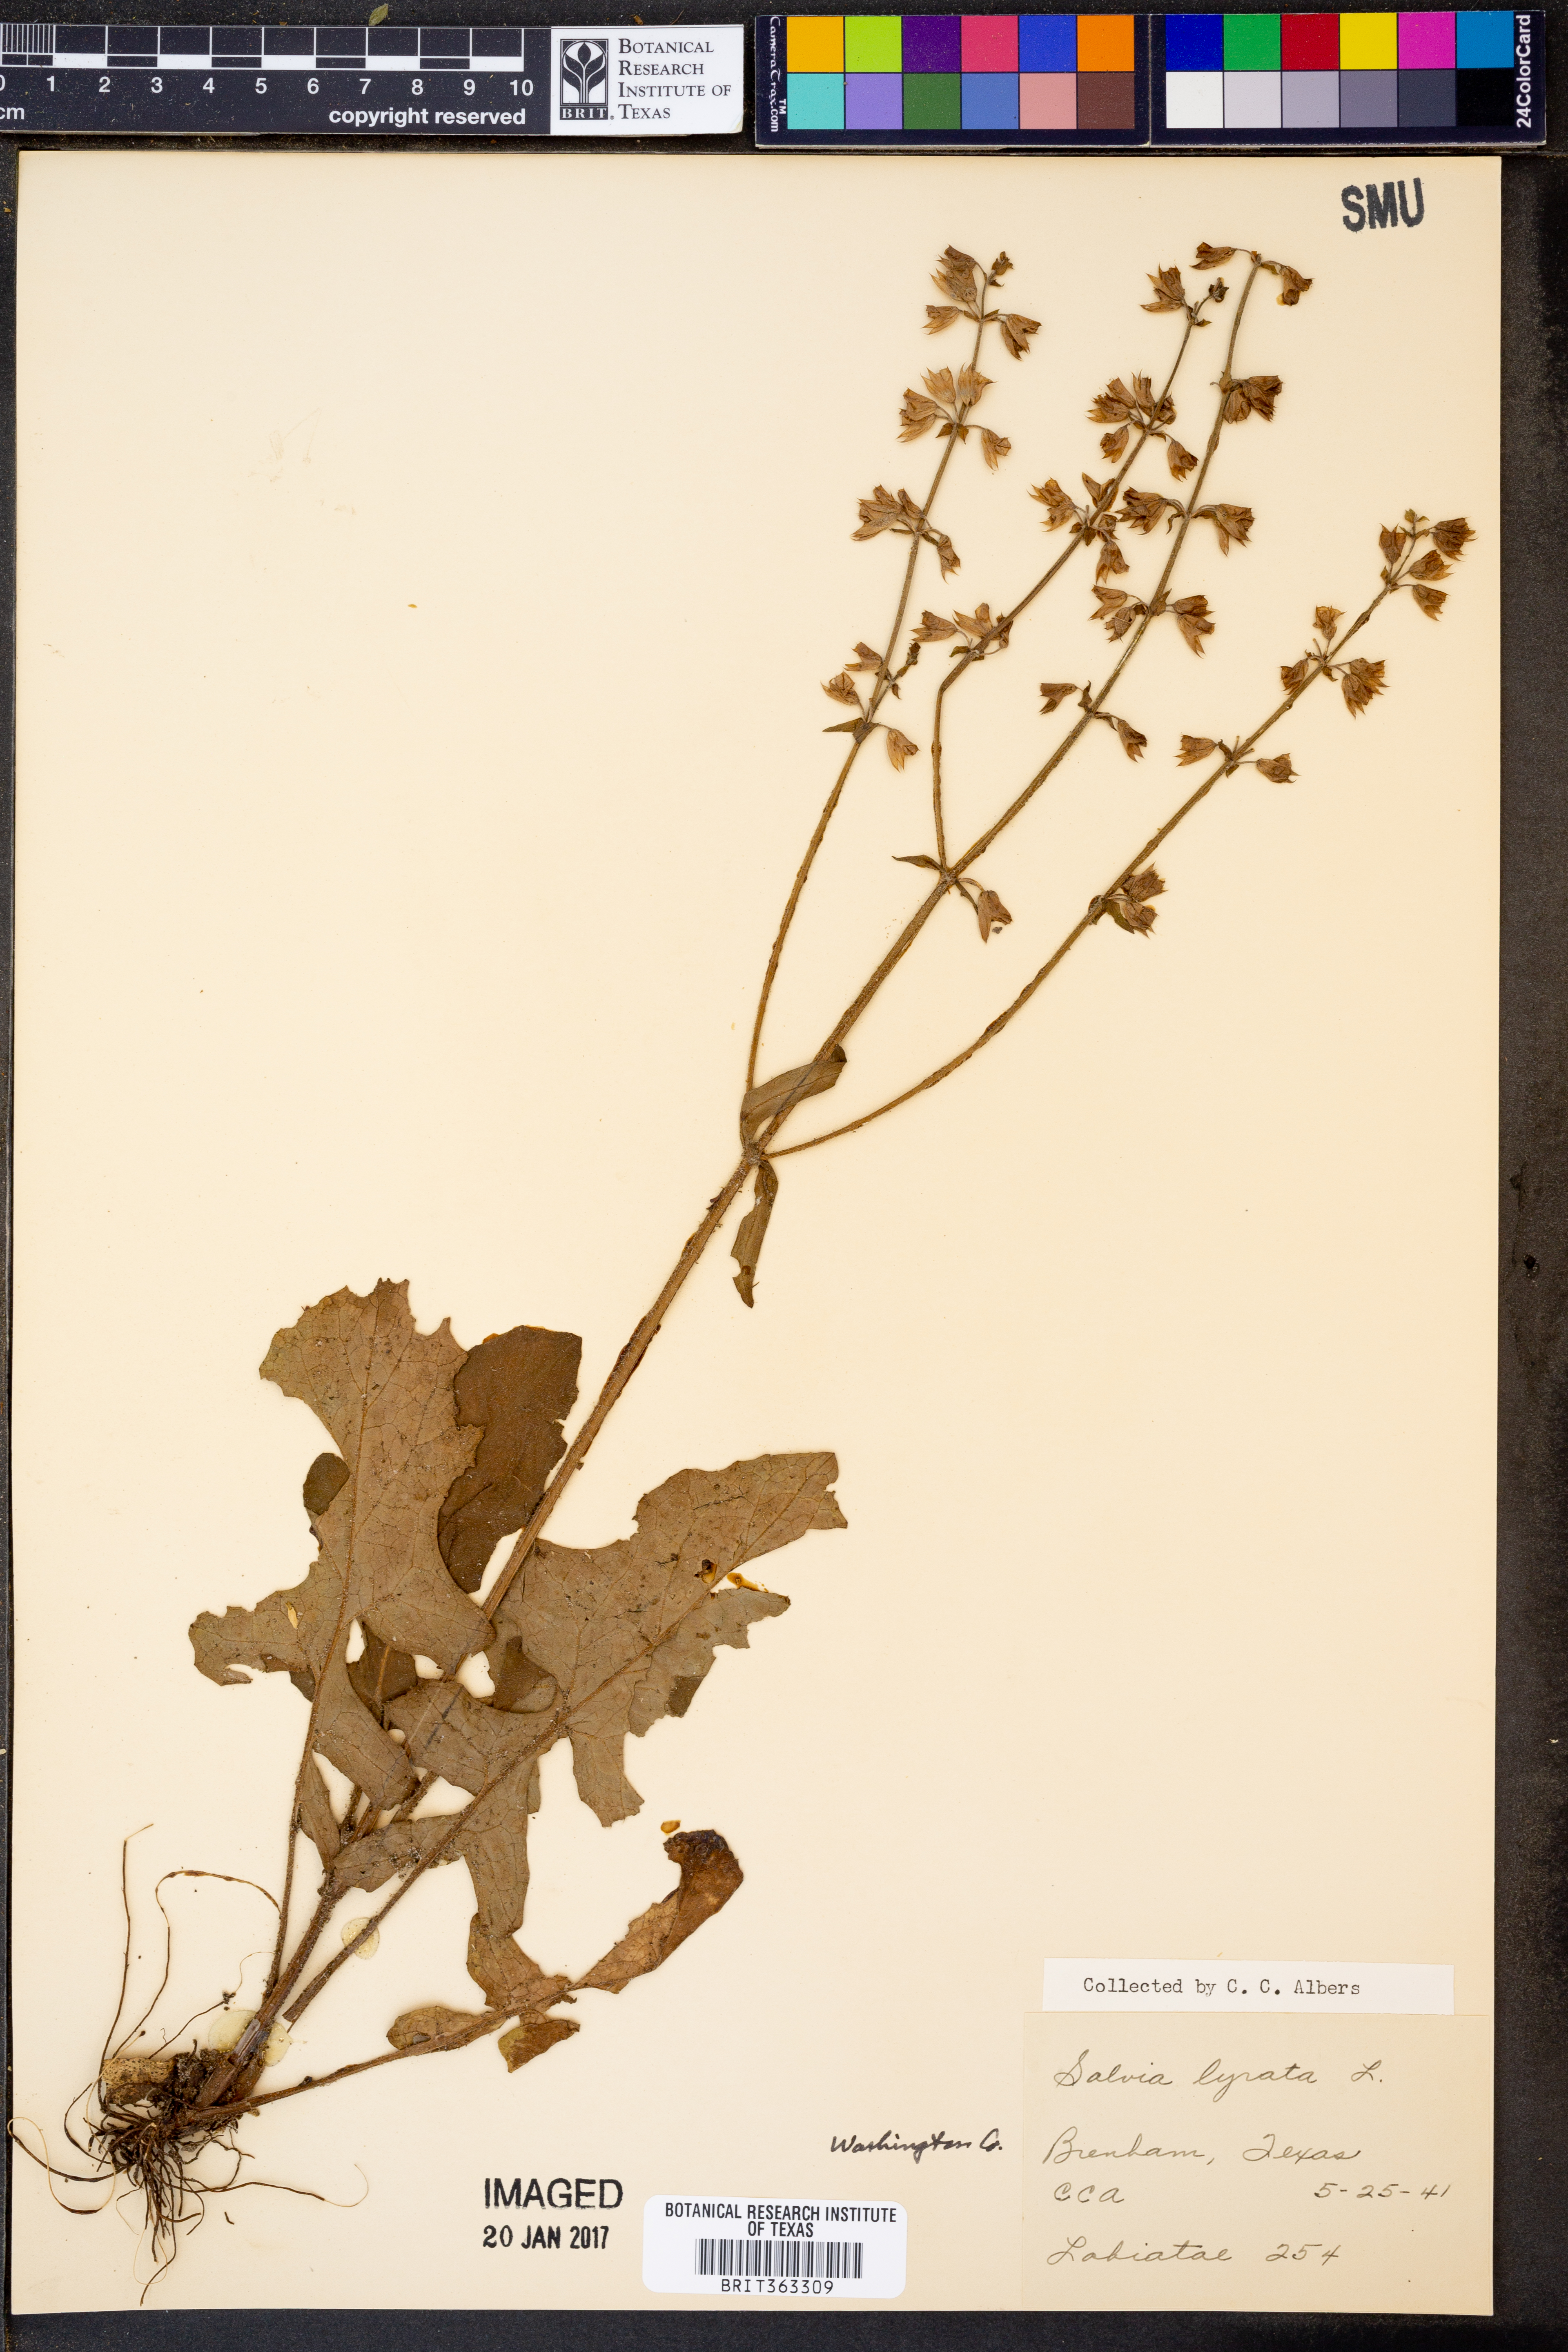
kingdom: Plantae
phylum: Tracheophyta
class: Magnoliopsida
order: Lamiales
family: Lamiaceae
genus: Salvia
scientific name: Salvia lyrata
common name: Cancerweed
